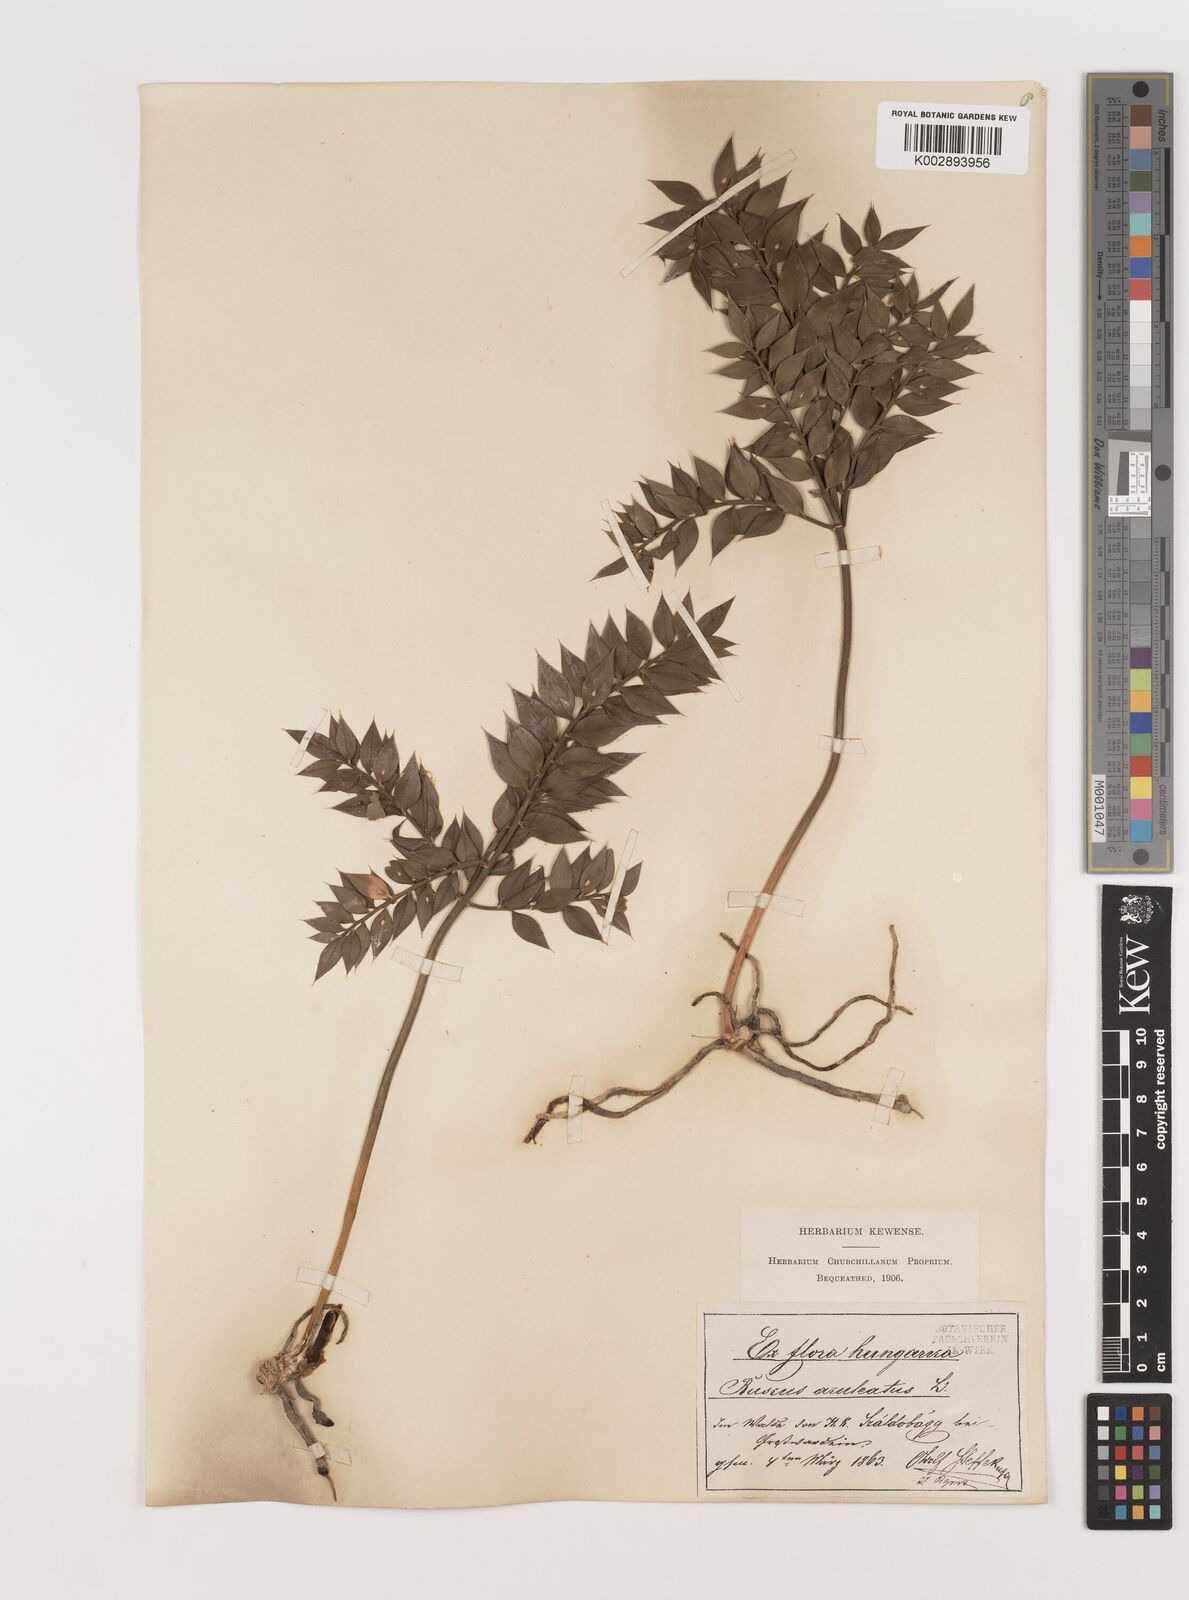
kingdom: Plantae
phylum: Tracheophyta
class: Liliopsida
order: Asparagales
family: Asparagaceae
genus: Ruscus
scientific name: Ruscus aculeatus
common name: Butcher's-broom
